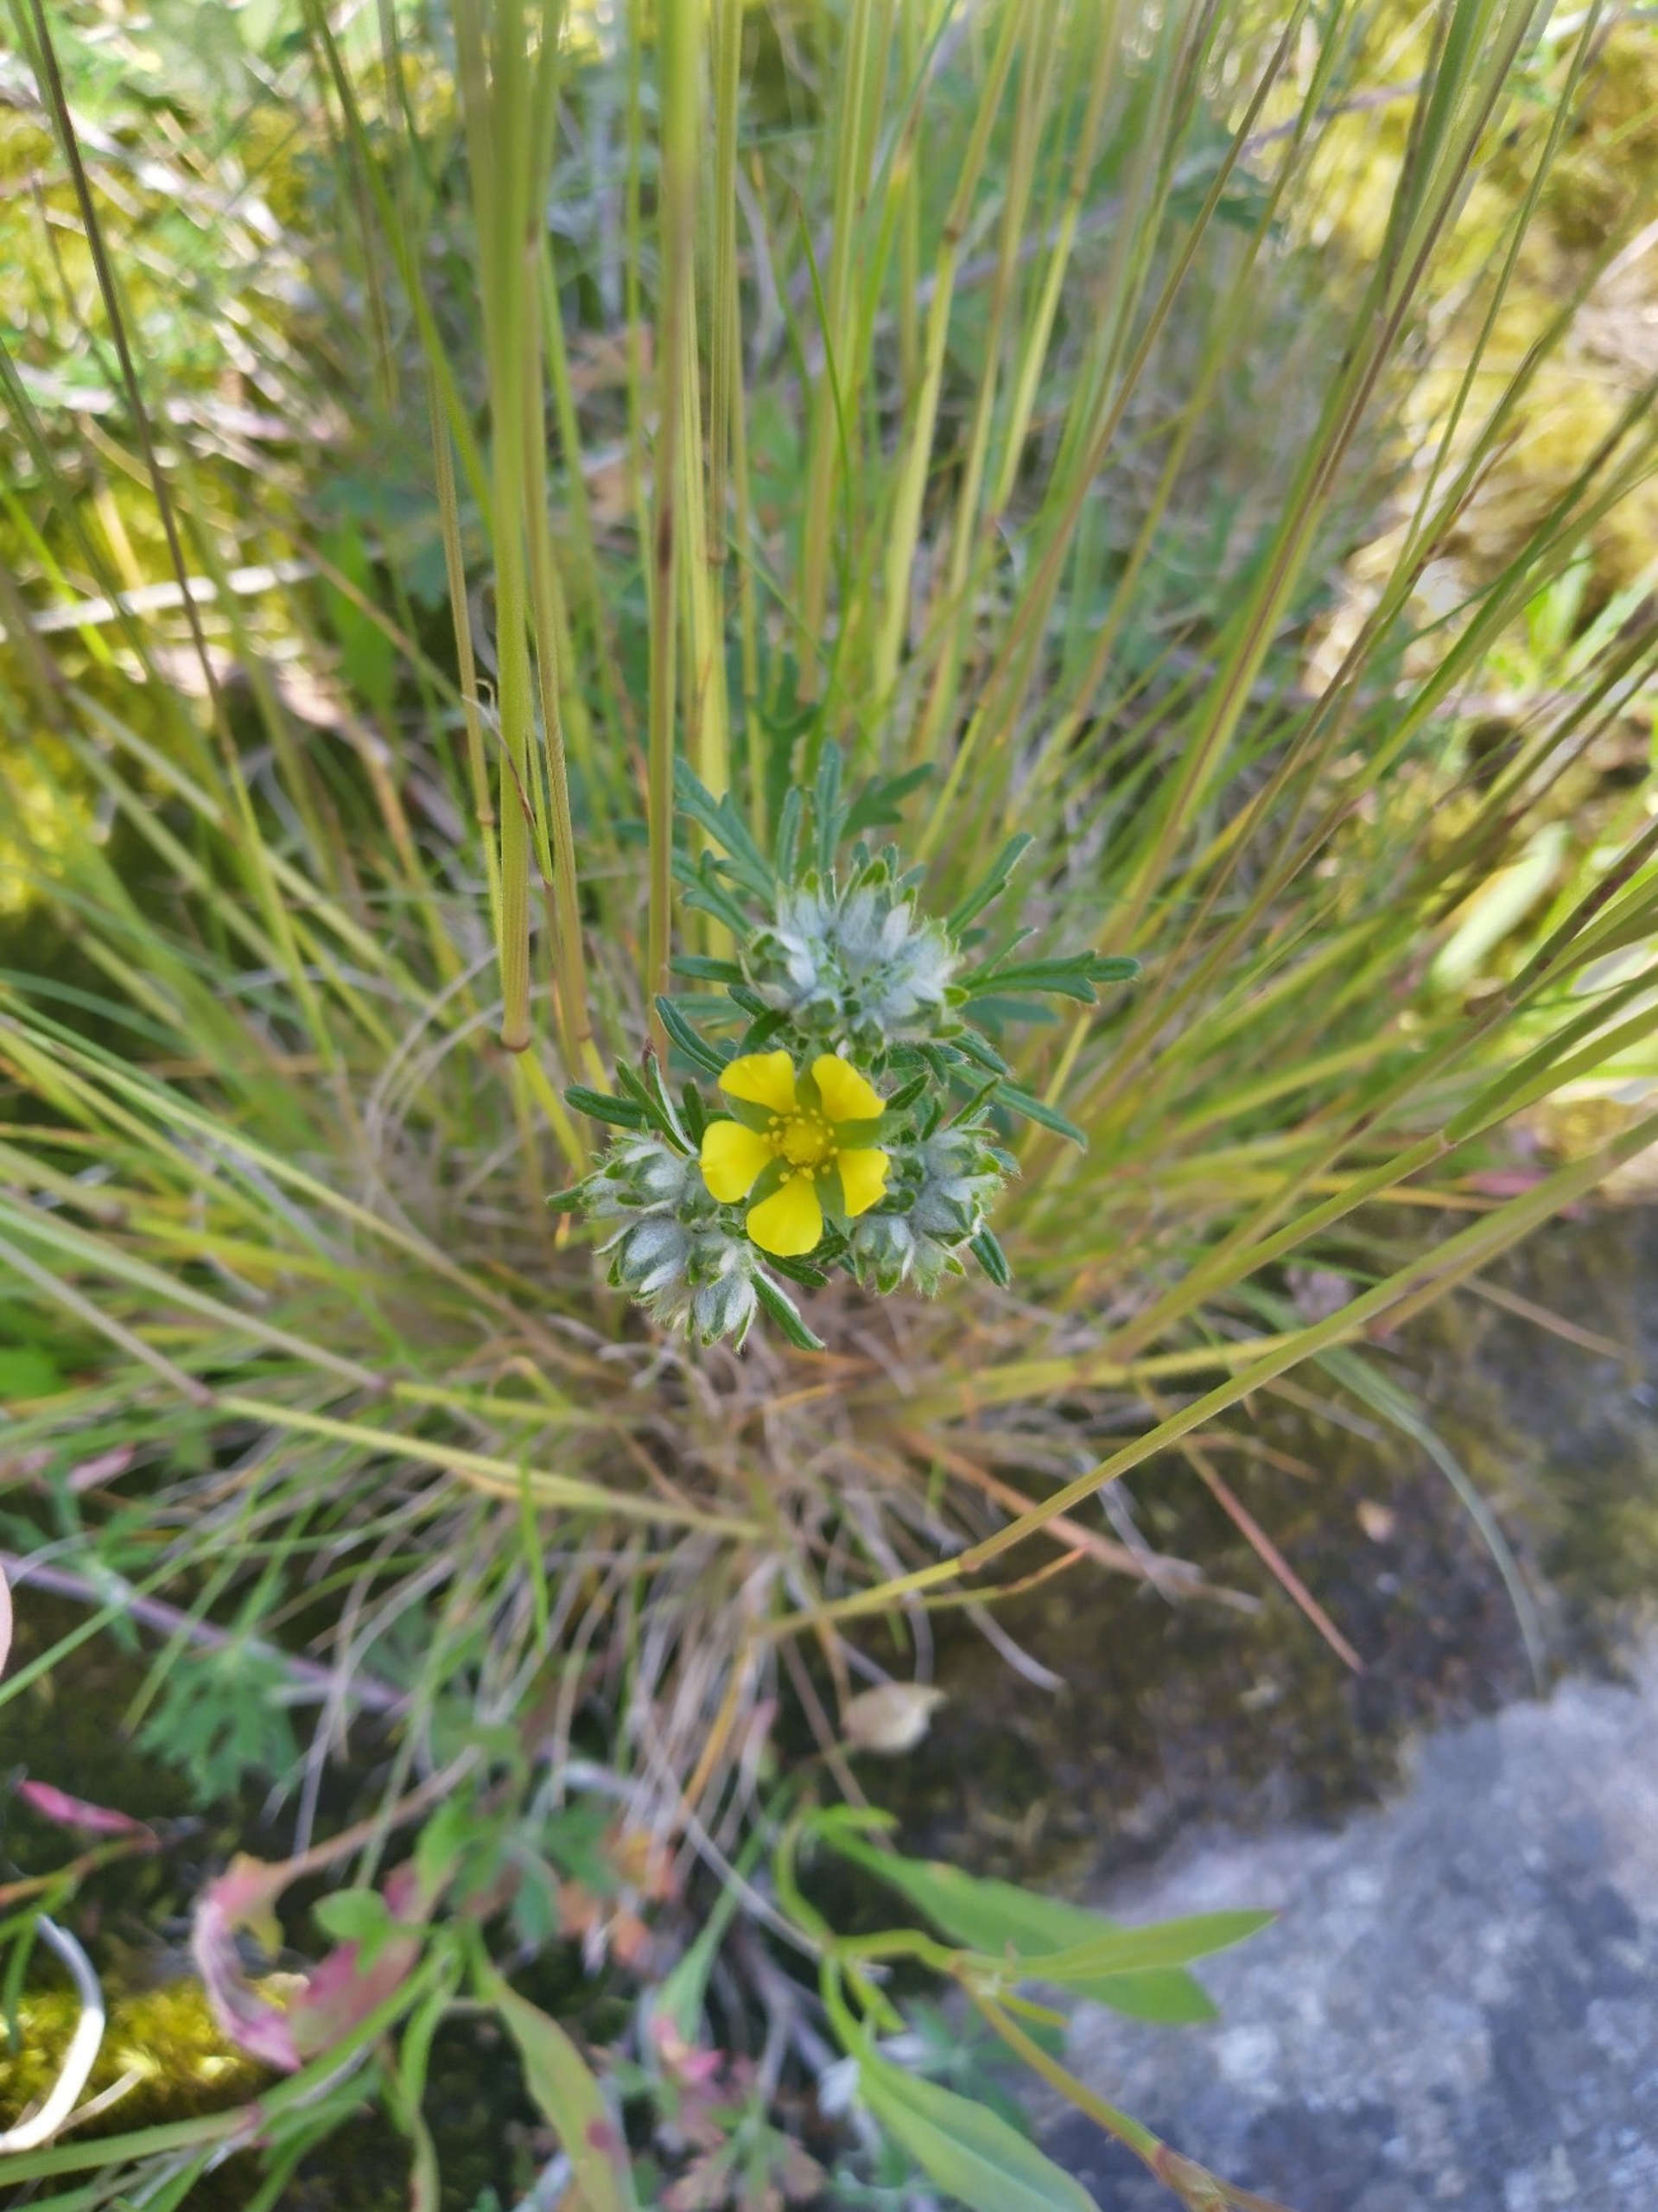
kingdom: Plantae
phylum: Tracheophyta
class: Magnoliopsida
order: Rosales
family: Rosaceae
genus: Potentilla
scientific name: Potentilla argentea
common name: Sølv-potentil
